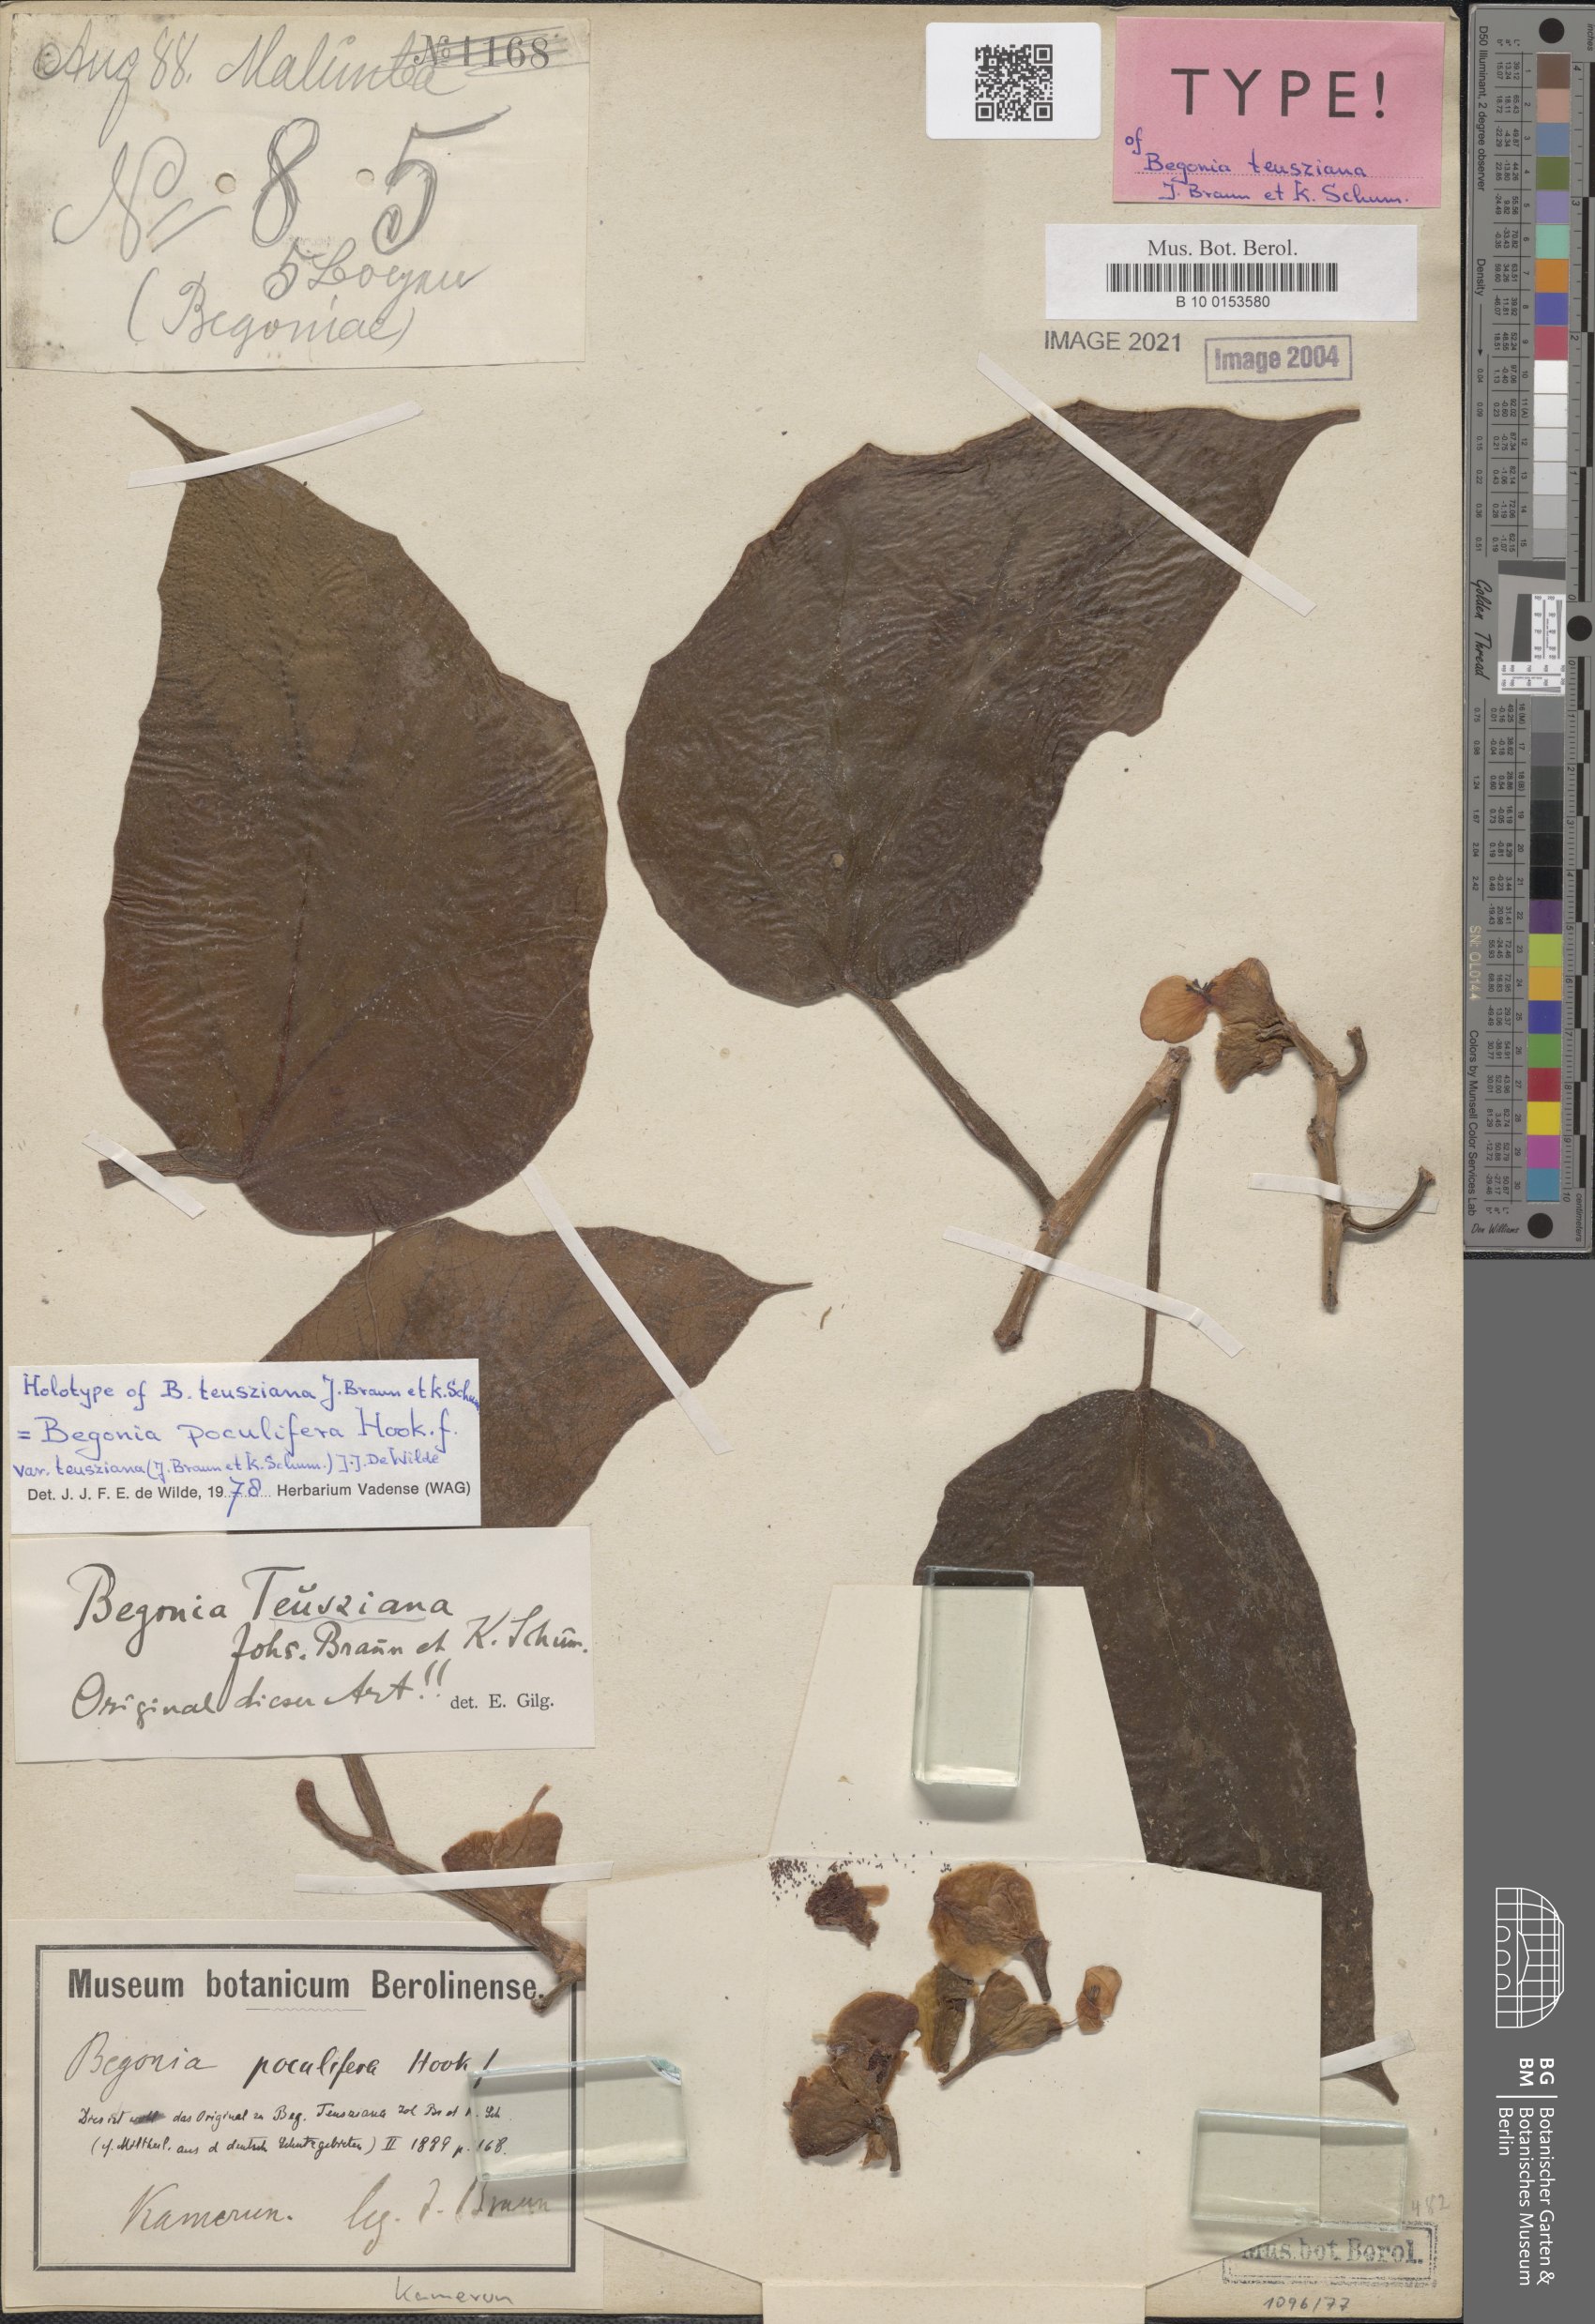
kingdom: Plantae
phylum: Tracheophyta
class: Magnoliopsida
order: Cucurbitales
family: Begoniaceae
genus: Begonia
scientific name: Begonia poculifera
